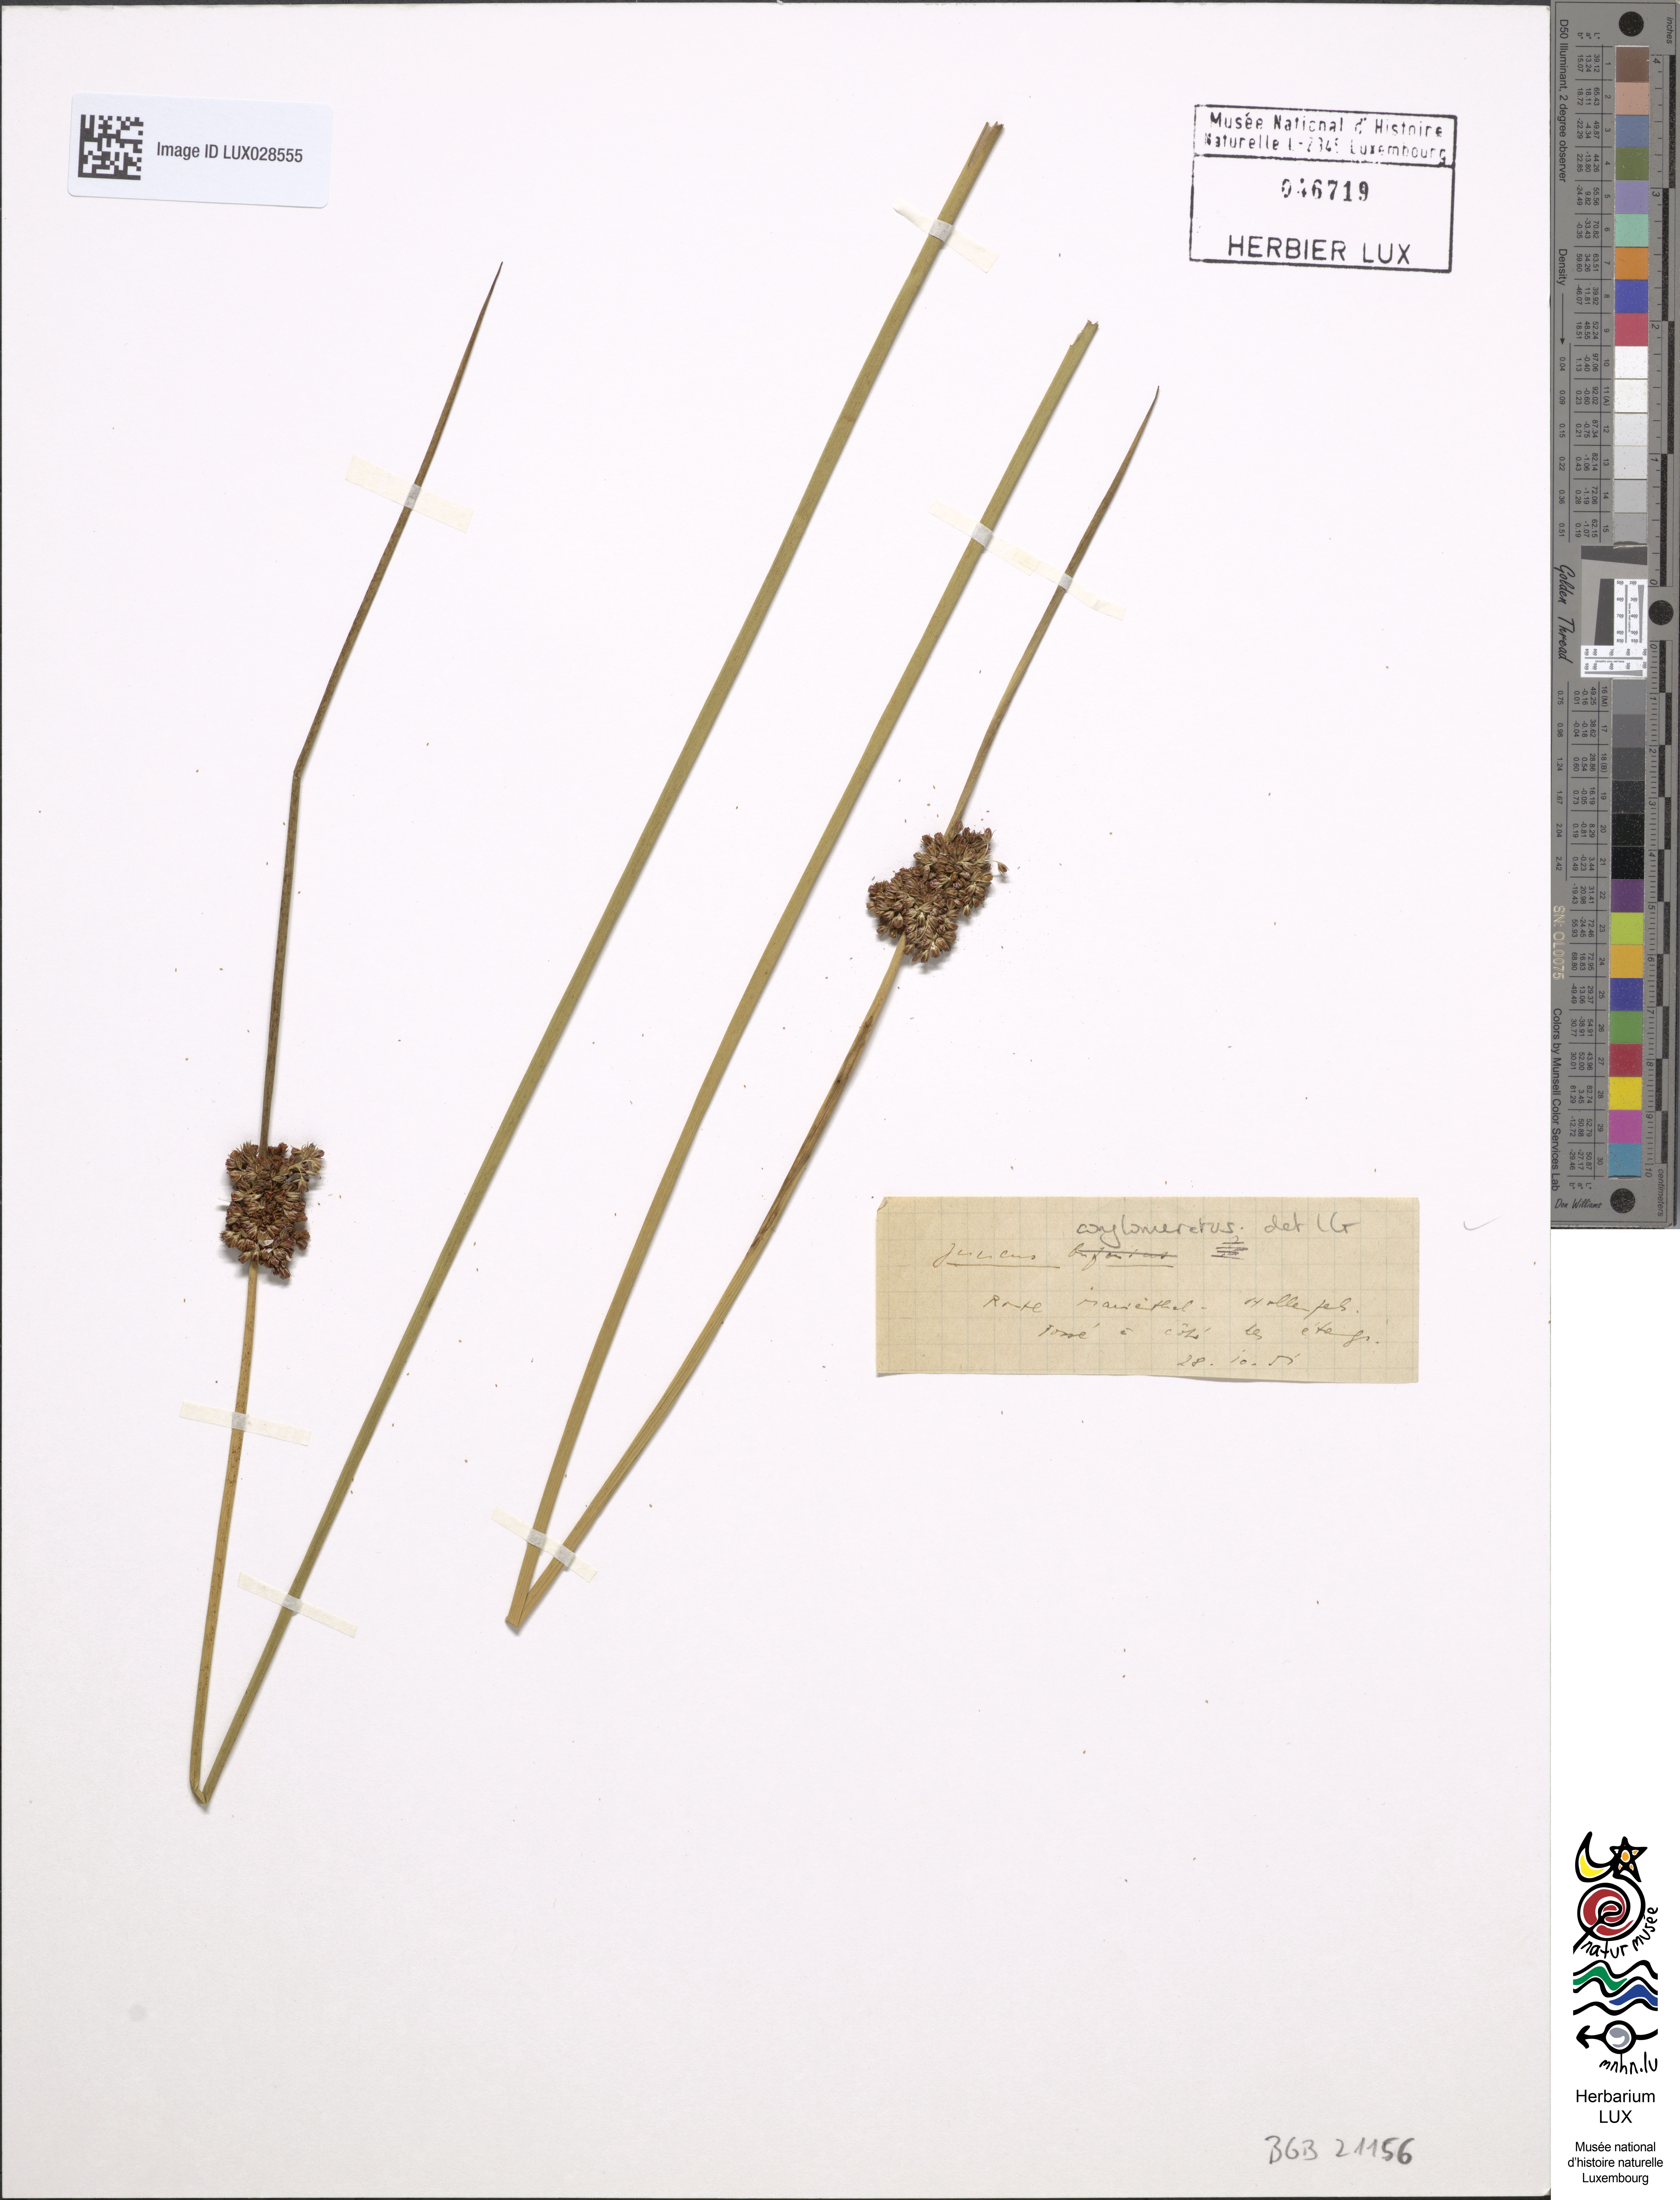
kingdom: Plantae
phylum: Tracheophyta
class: Liliopsida
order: Poales
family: Juncaceae
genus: Juncus
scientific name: Juncus conglomeratus
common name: Compact rush
